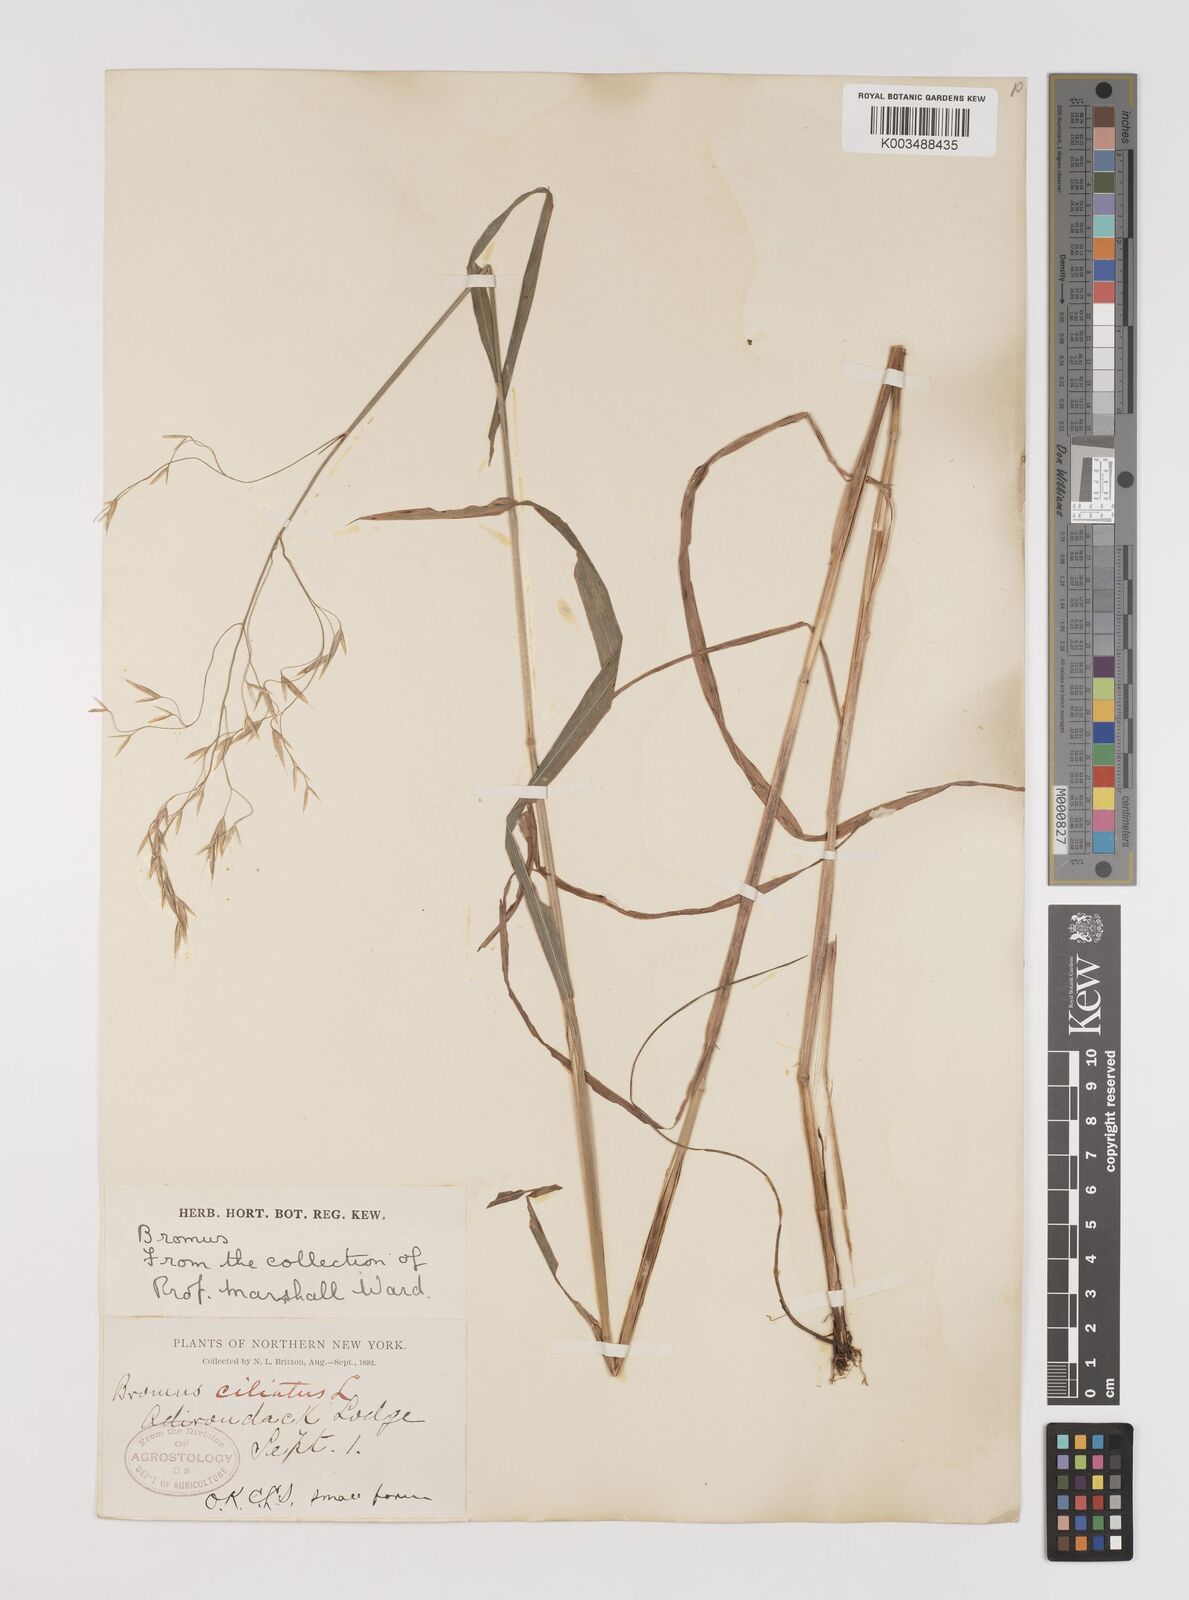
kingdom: Plantae
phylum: Tracheophyta
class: Liliopsida
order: Poales
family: Poaceae
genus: Bromus
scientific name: Bromus ciliatus
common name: Fringe brome
